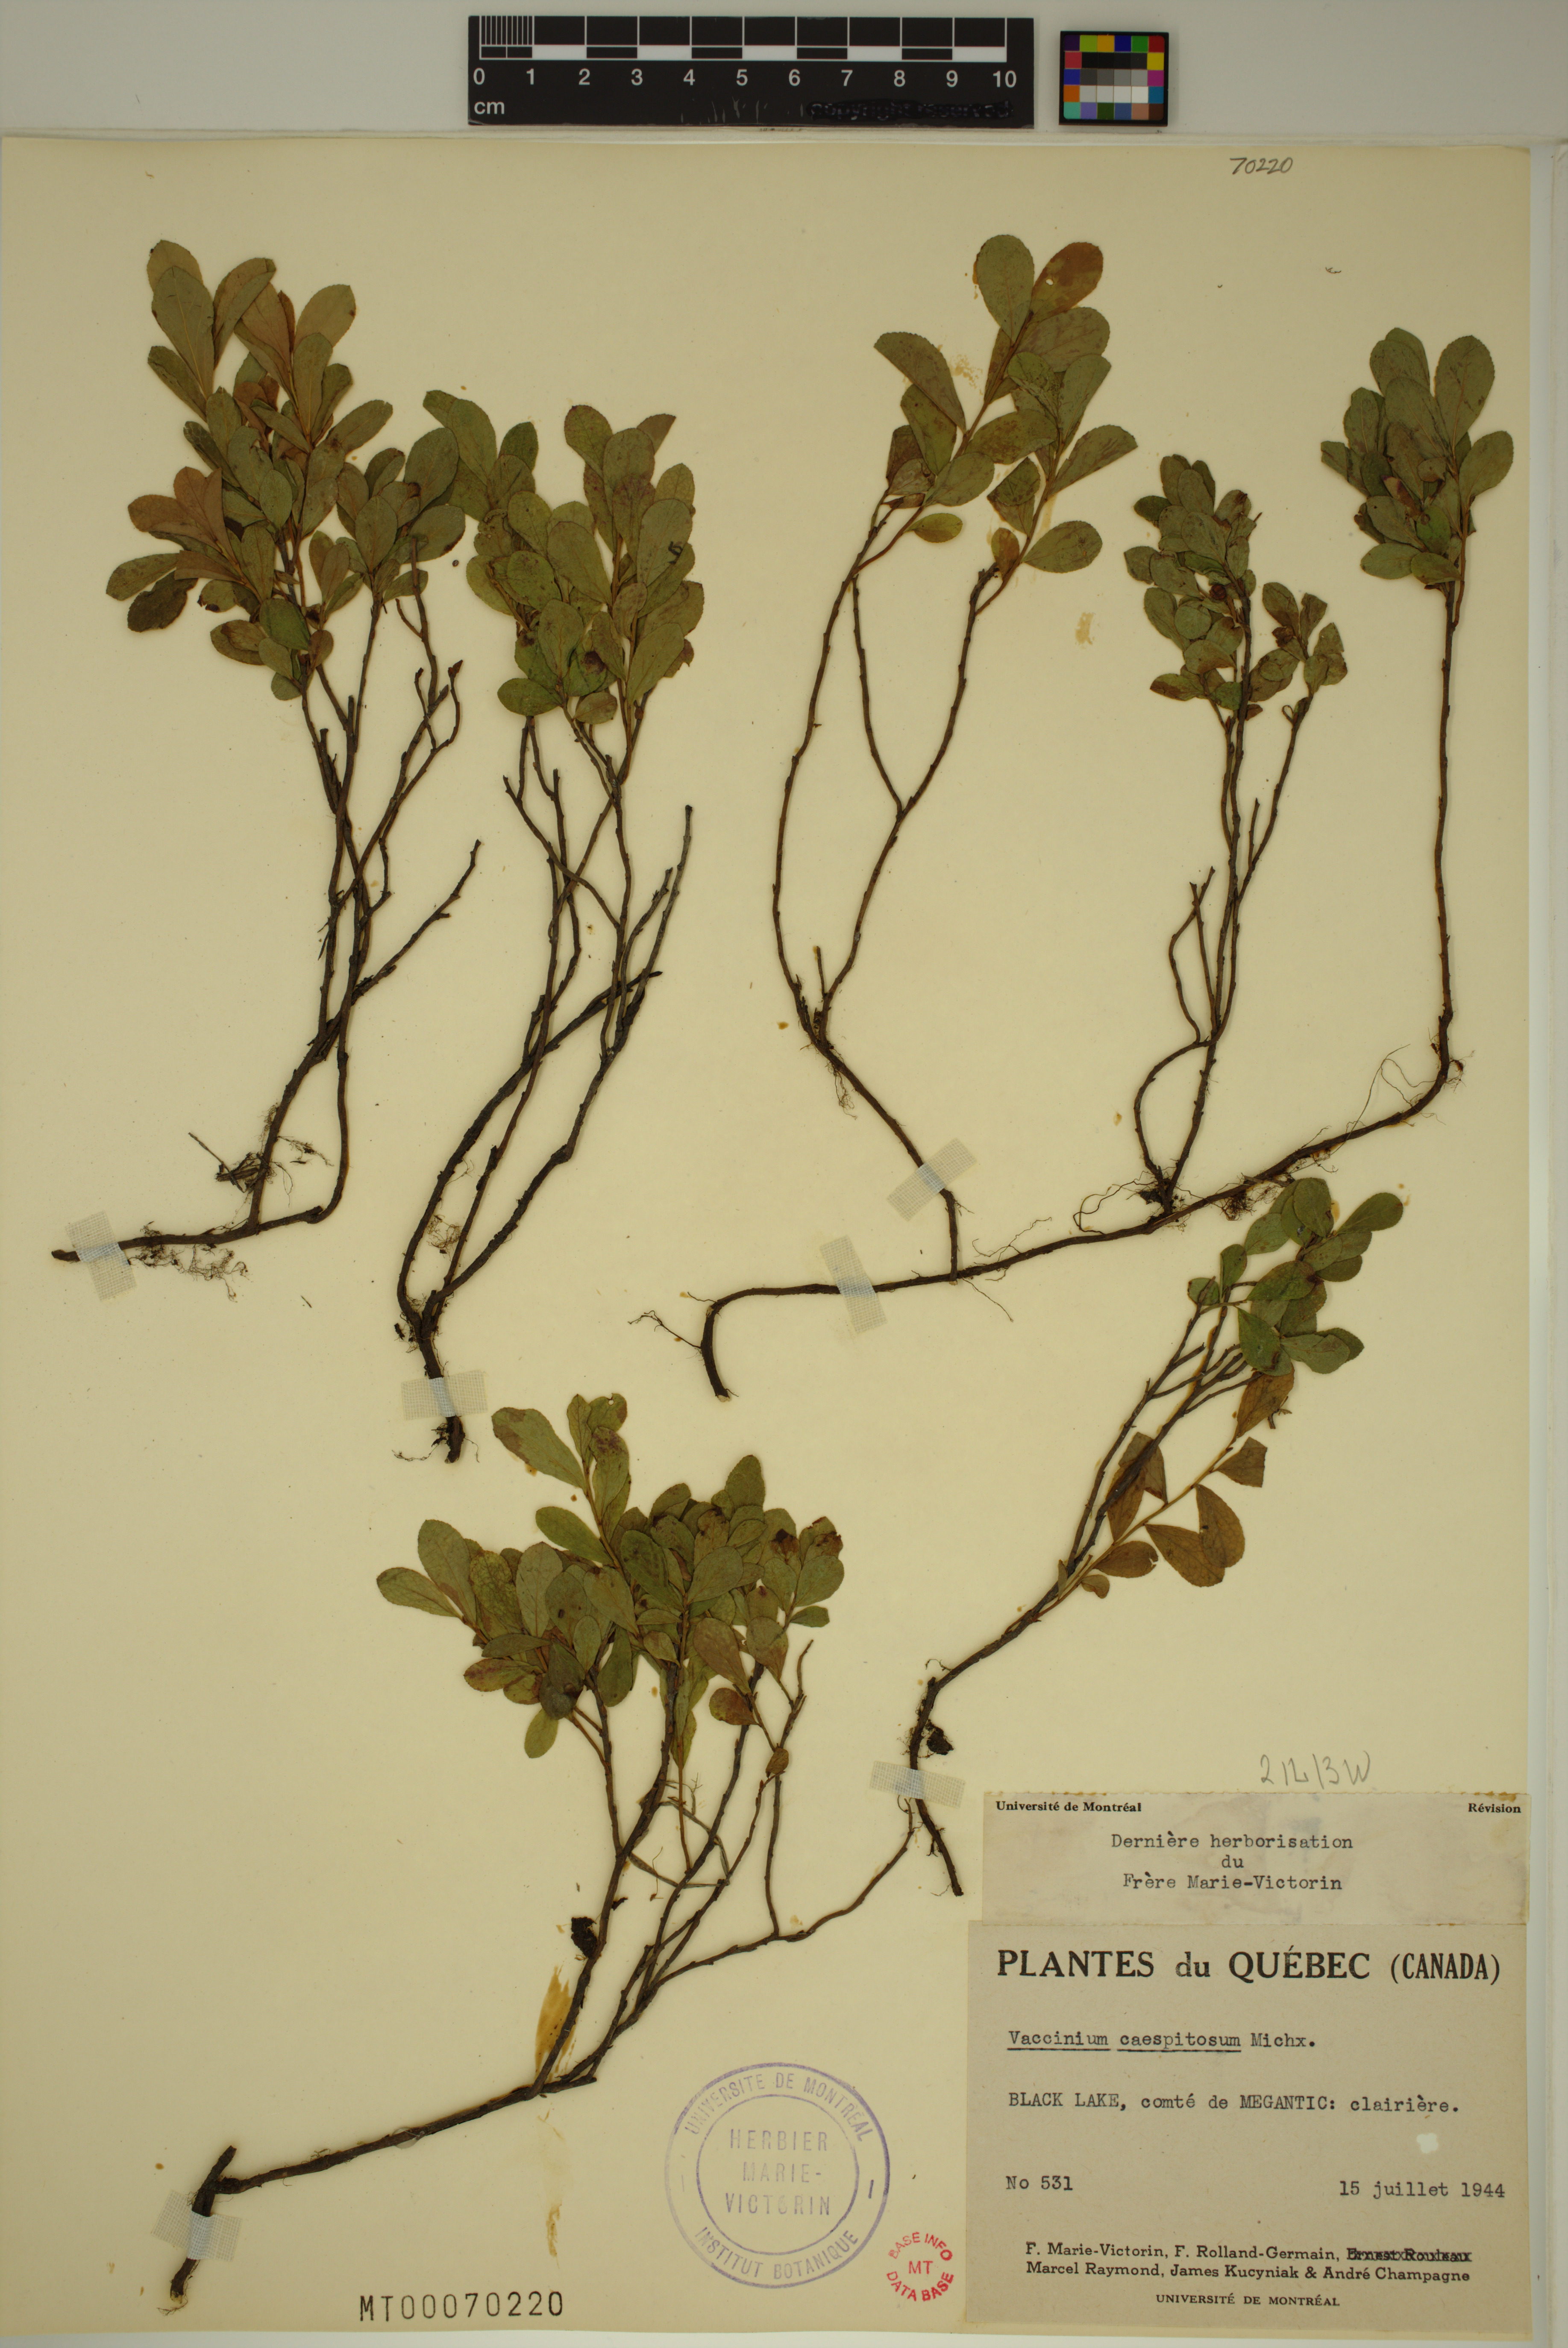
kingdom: Plantae
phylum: Tracheophyta
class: Magnoliopsida
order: Ericales
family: Ericaceae
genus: Vaccinium
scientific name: Vaccinium cespitosum
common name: Dwarf bilberry
